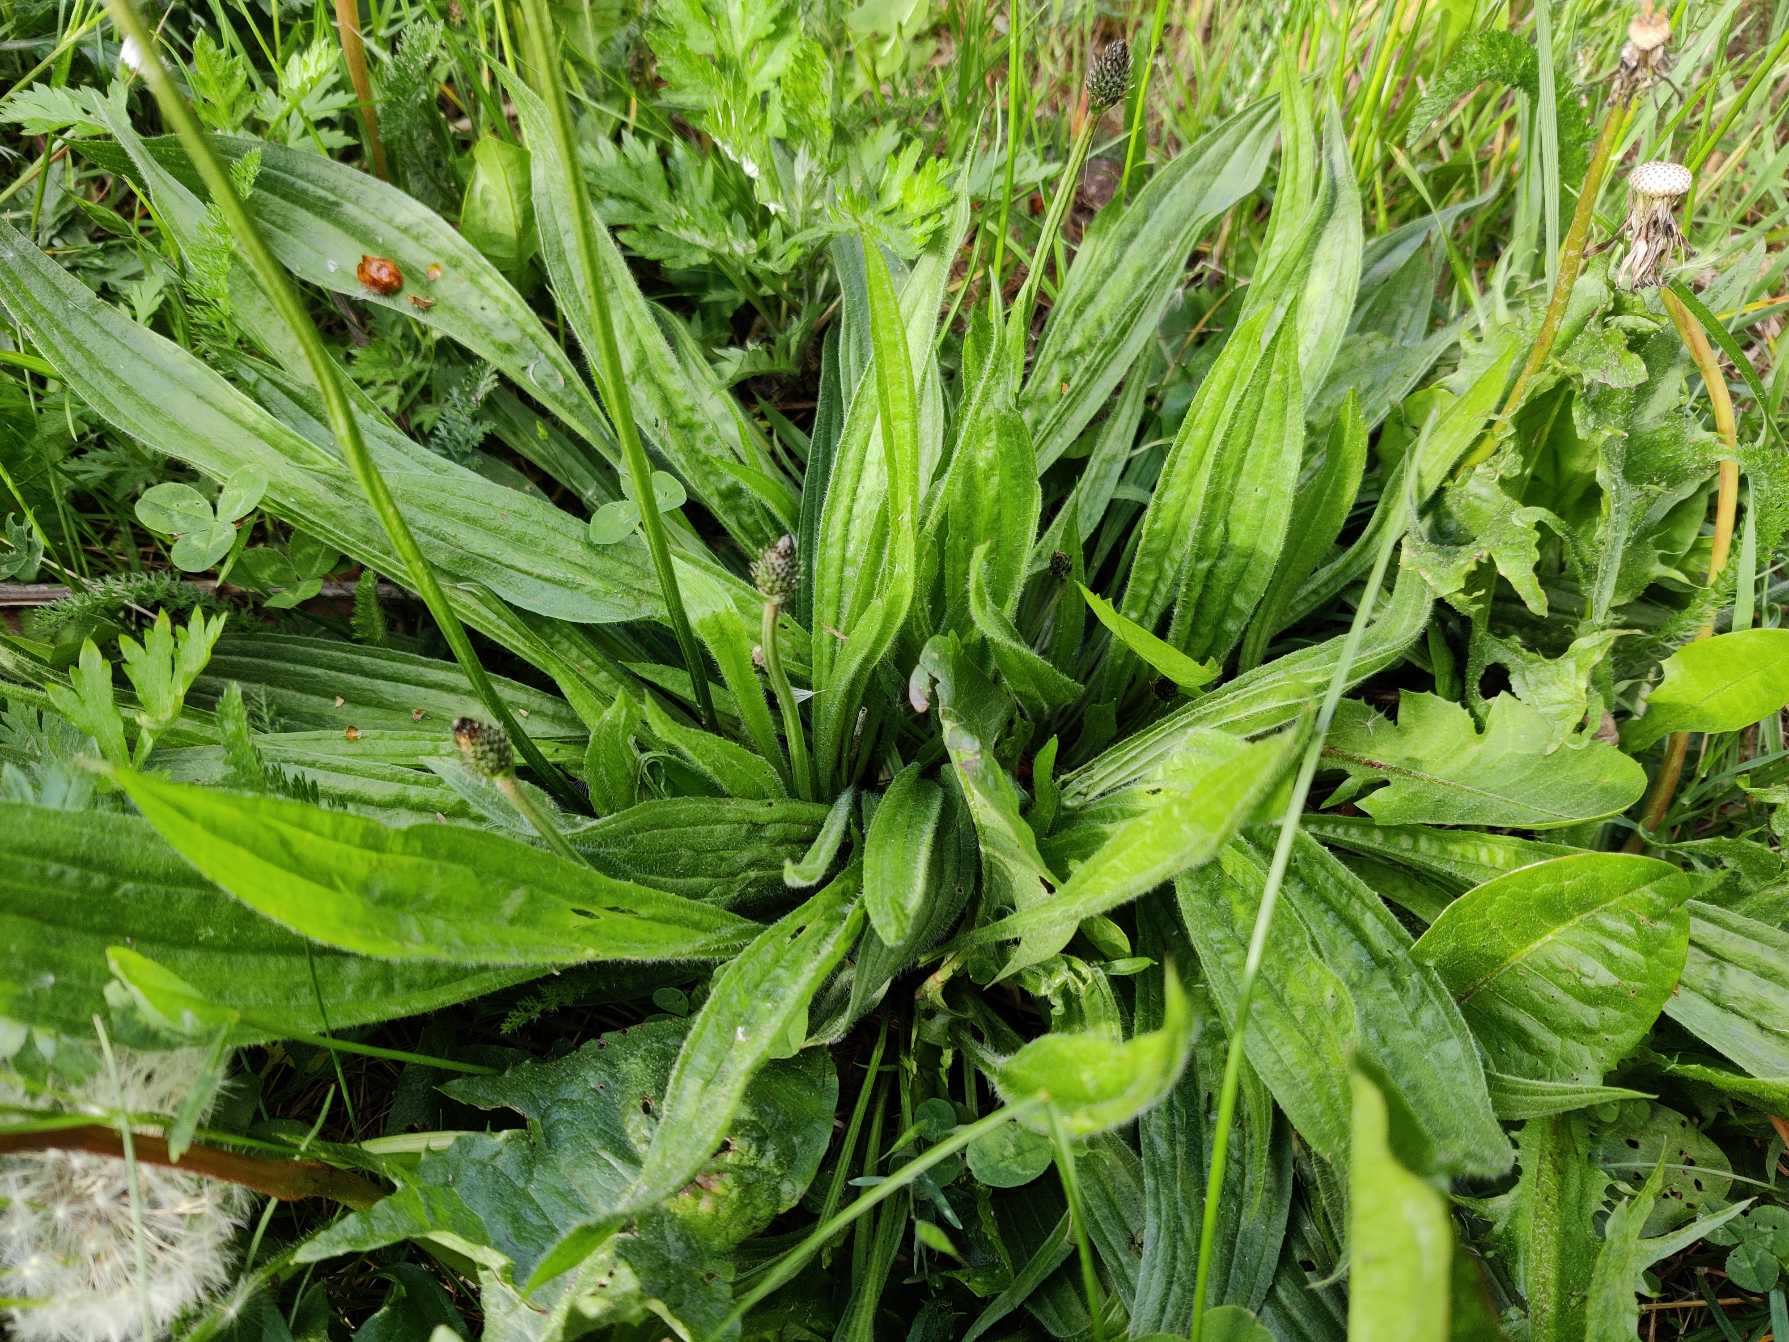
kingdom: Plantae
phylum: Tracheophyta
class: Magnoliopsida
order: Lamiales
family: Plantaginaceae
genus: Plantago
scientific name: Plantago lanceolata
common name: Lancet-vejbred
